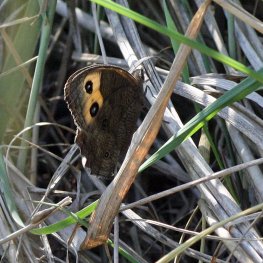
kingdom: Animalia
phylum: Arthropoda
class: Insecta
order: Lepidoptera
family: Nymphalidae
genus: Cercyonis
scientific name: Cercyonis pegala
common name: Common Wood-Nymph
